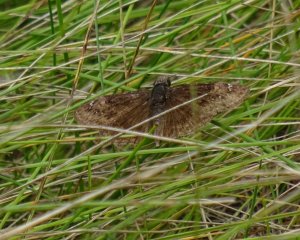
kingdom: Animalia
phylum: Arthropoda
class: Insecta
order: Lepidoptera
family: Hesperiidae
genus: Gesta
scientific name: Gesta
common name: Wild Indigo Duskywing
